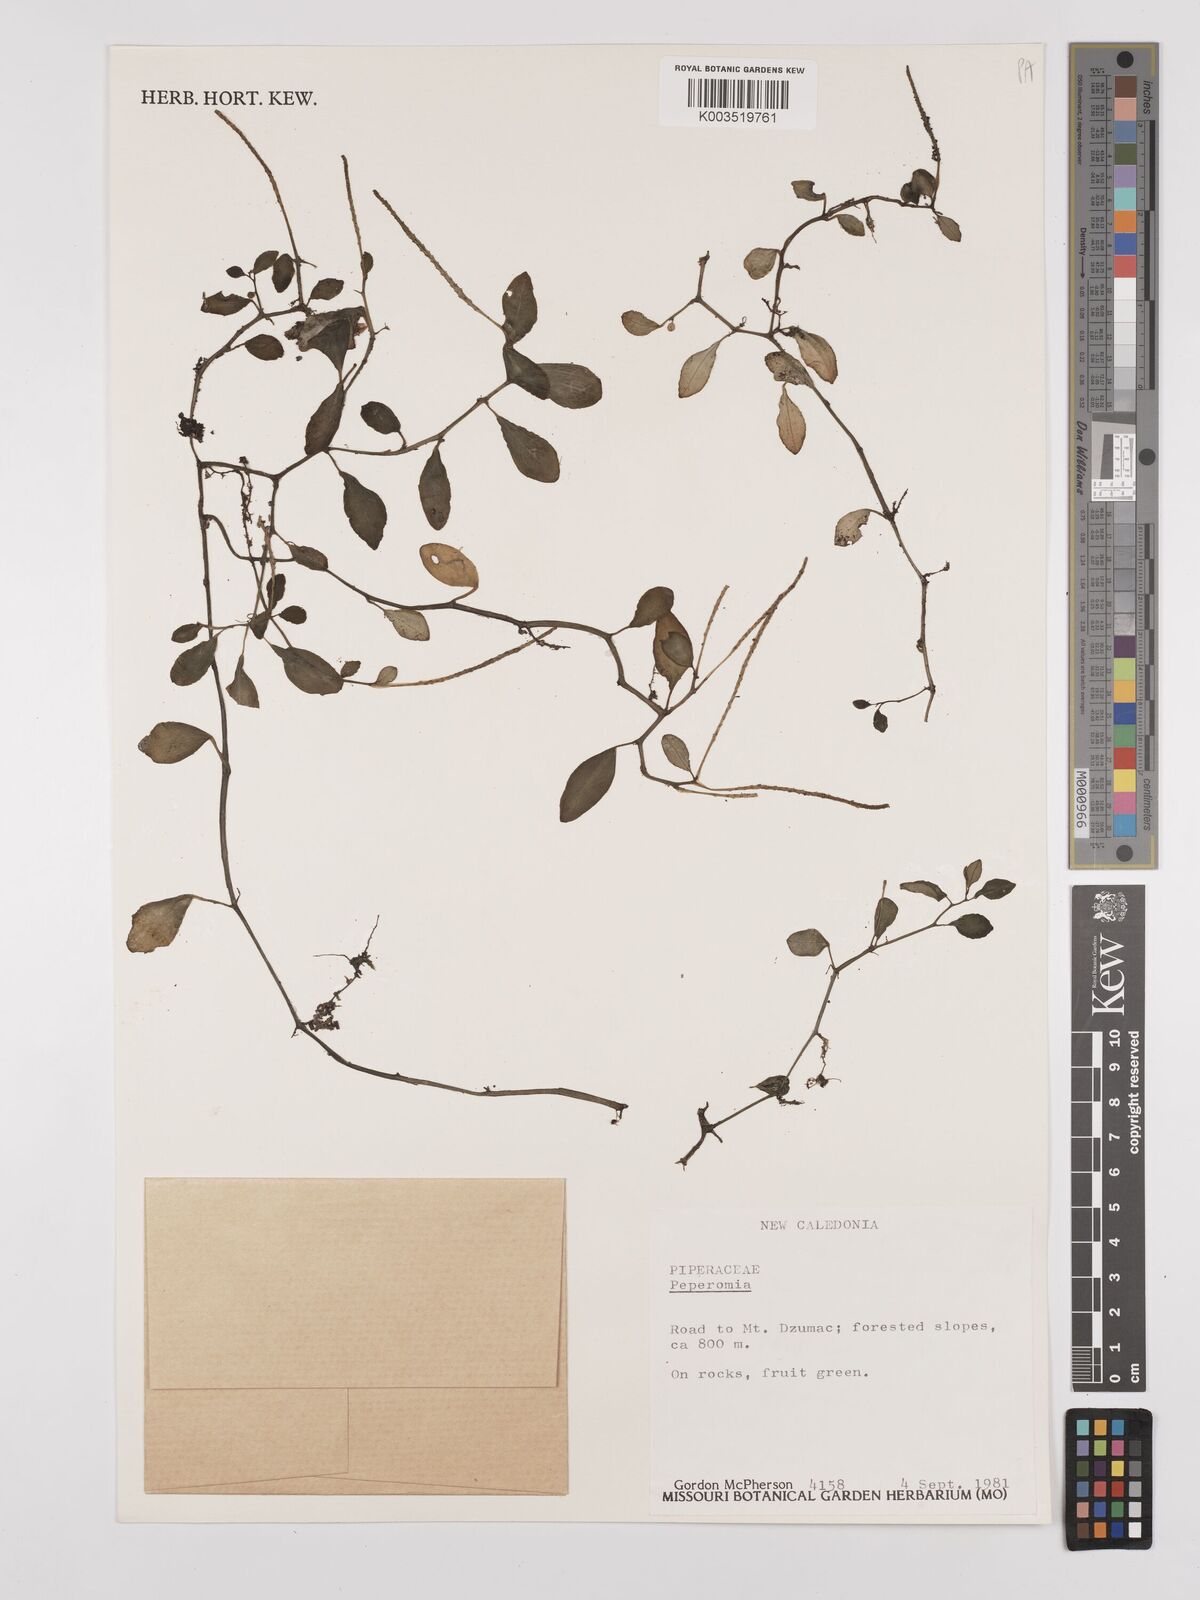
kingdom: Plantae
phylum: Tracheophyta
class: Magnoliopsida
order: Piperales
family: Piperaceae
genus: Peperomia
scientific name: Peperomia
